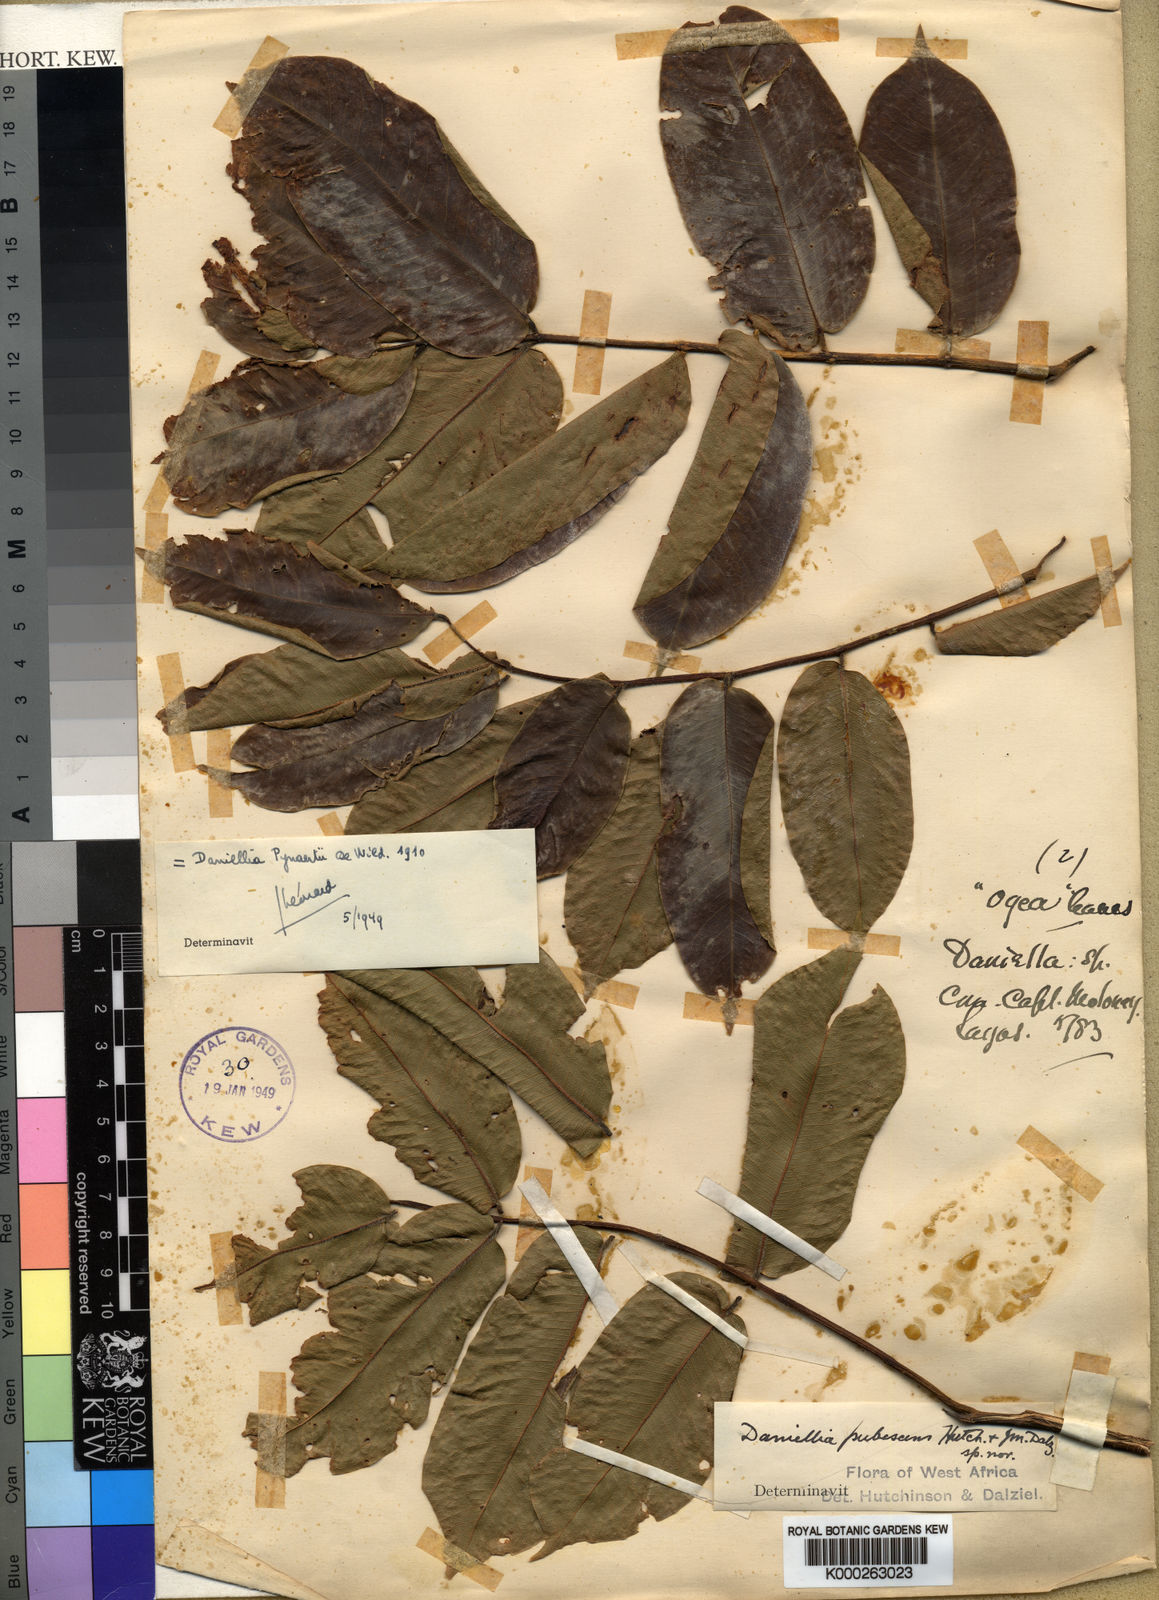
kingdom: Plantae
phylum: Tracheophyta
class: Magnoliopsida
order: Fabales
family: Fabaceae
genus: Daniellia
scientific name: Daniellia pynaertii
